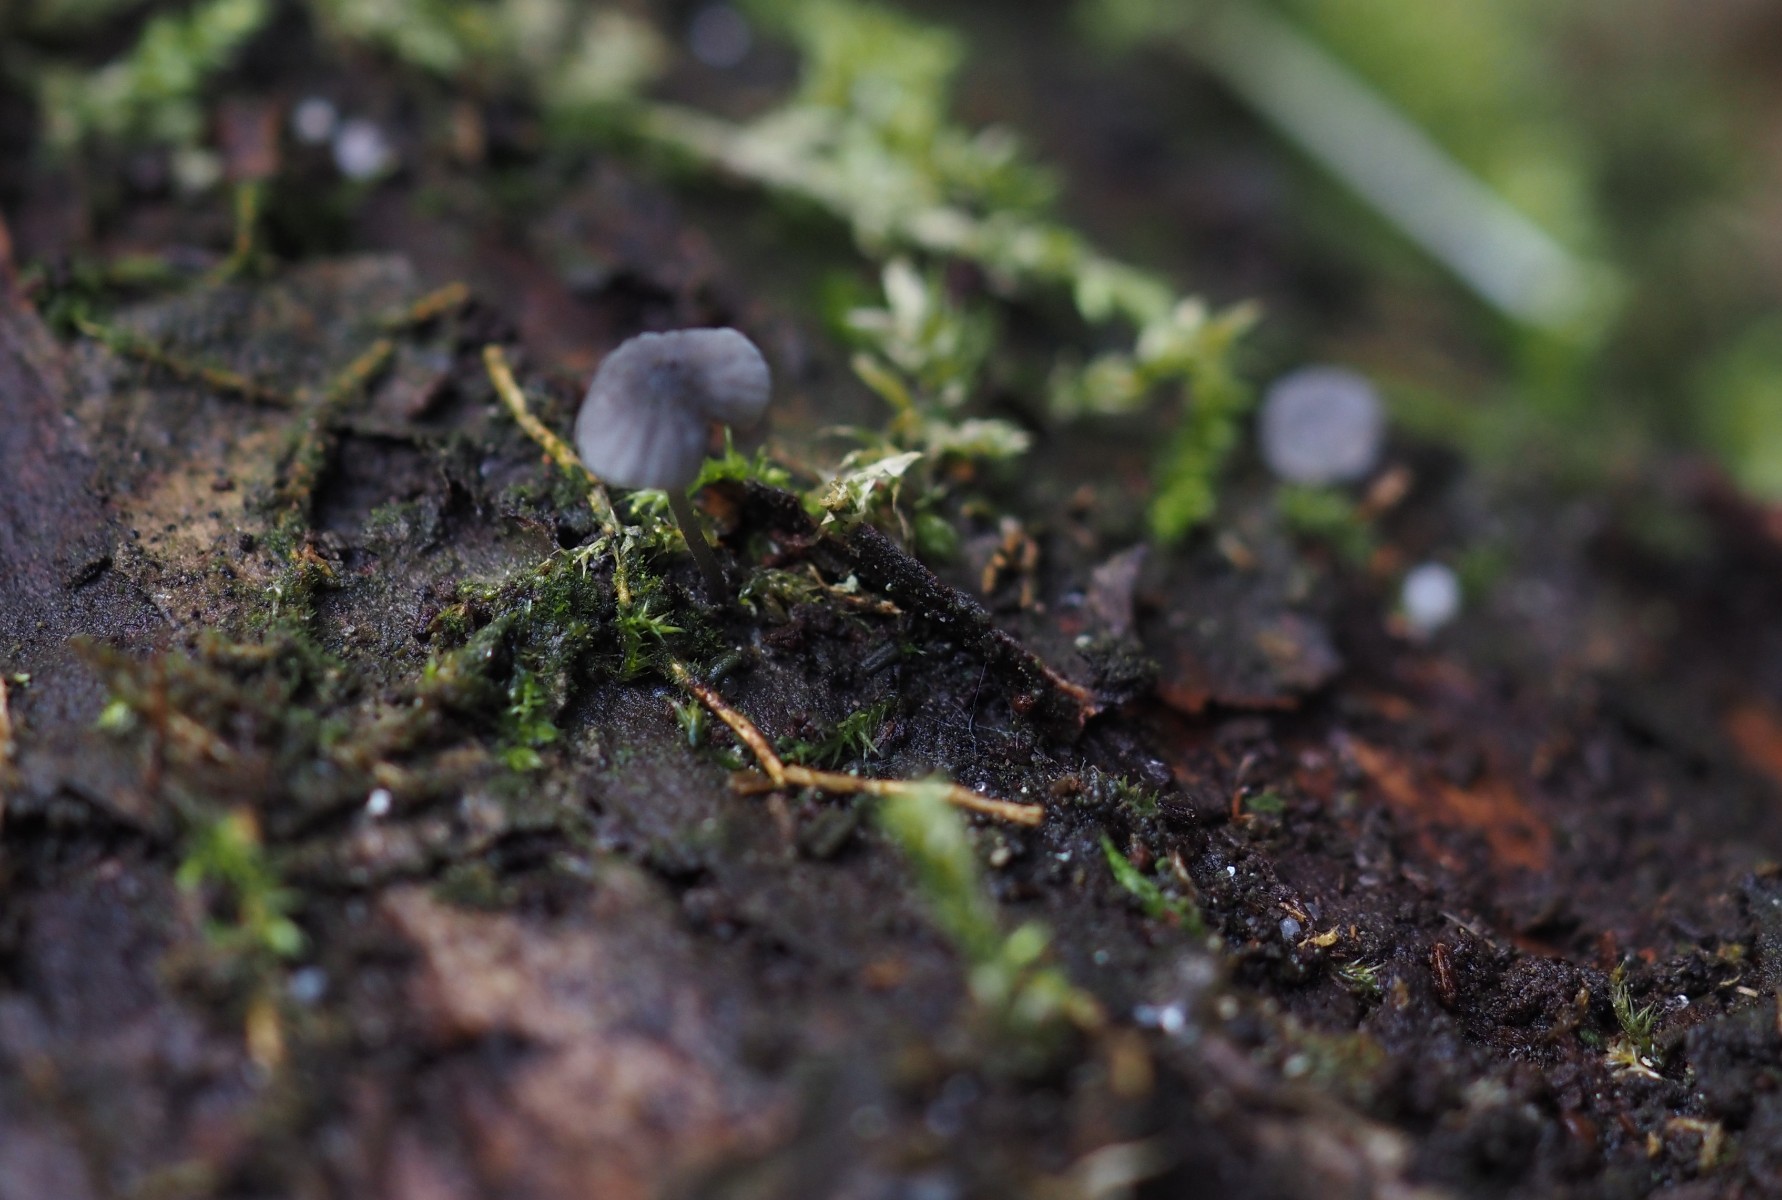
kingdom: Fungi
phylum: Basidiomycota
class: Agaricomycetes
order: Agaricales
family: Mycenaceae
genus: Mycena
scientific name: Mycena pseudocorticola
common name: gråblå bark-huesvamp
